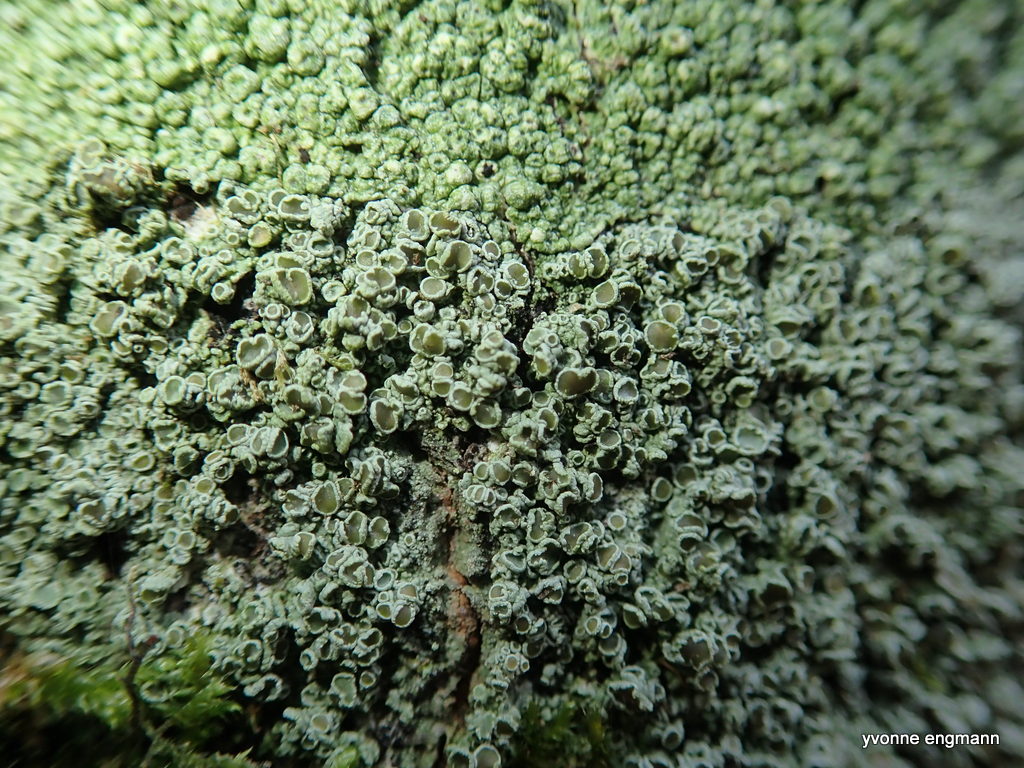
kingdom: Fungi
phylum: Ascomycota
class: Lecanoromycetes
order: Lecanorales
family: Lecanoraceae
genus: Lecanora
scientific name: Lecanora chlarotera
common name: brun kantskivelav
